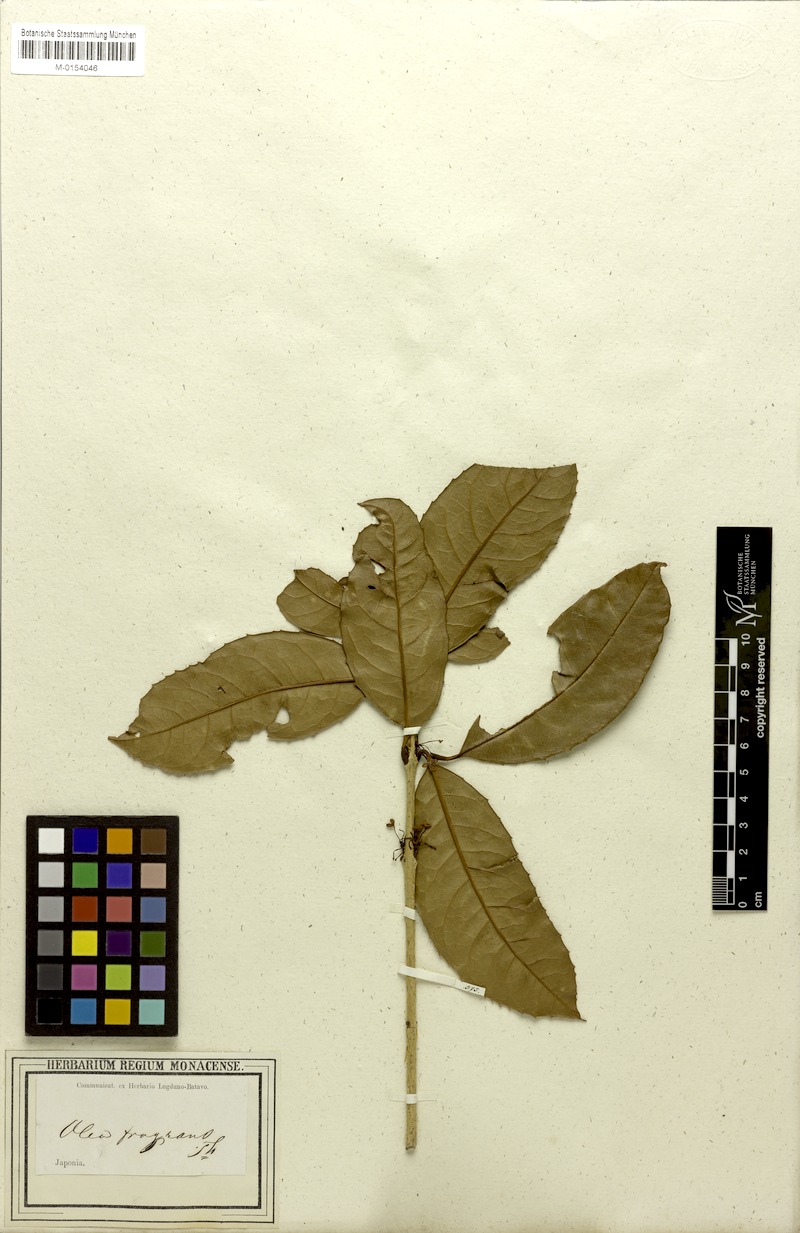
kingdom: Plantae
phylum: Tracheophyta
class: Magnoliopsida
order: Lamiales
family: Oleaceae
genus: Osmanthus
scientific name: Osmanthus fragrans
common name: Sweet osmanthus
